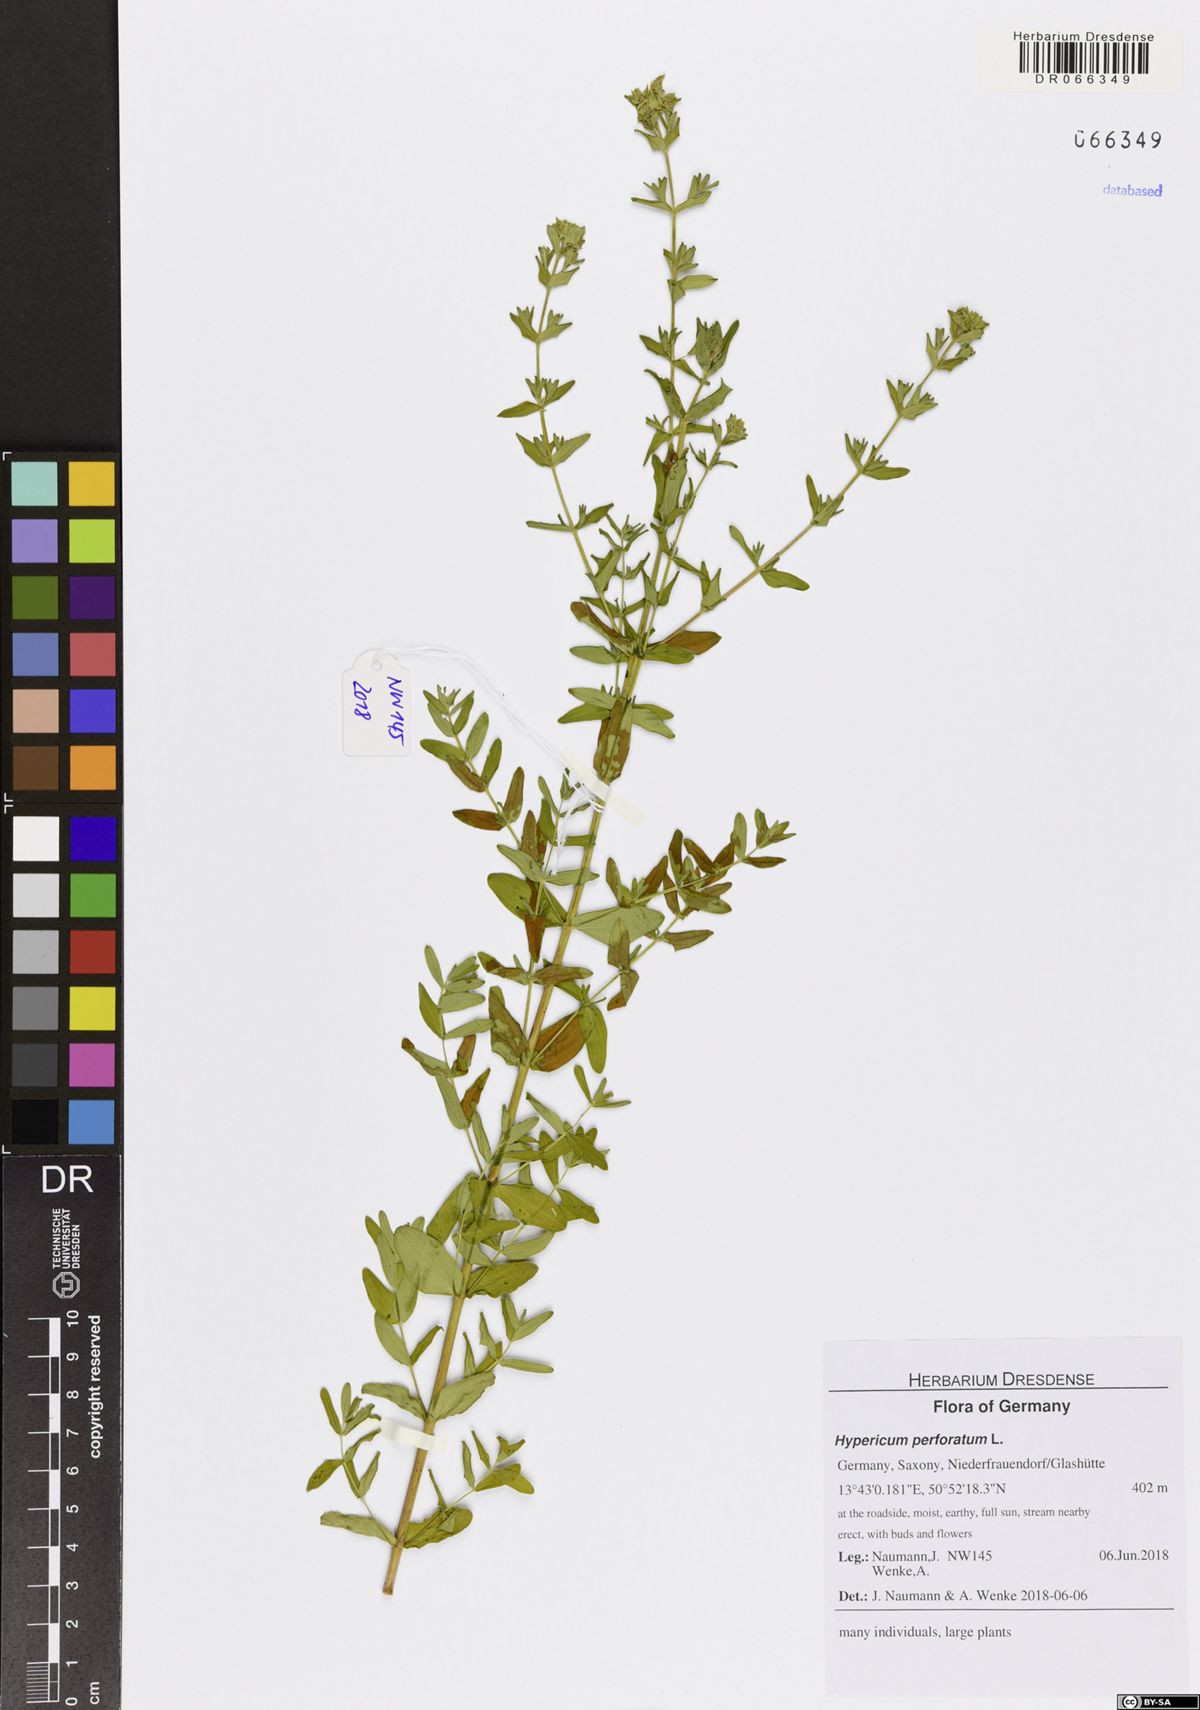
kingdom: Plantae
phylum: Tracheophyta
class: Magnoliopsida
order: Malpighiales
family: Hypericaceae
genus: Hypericum
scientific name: Hypericum perforatum
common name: Common st. johnswort
